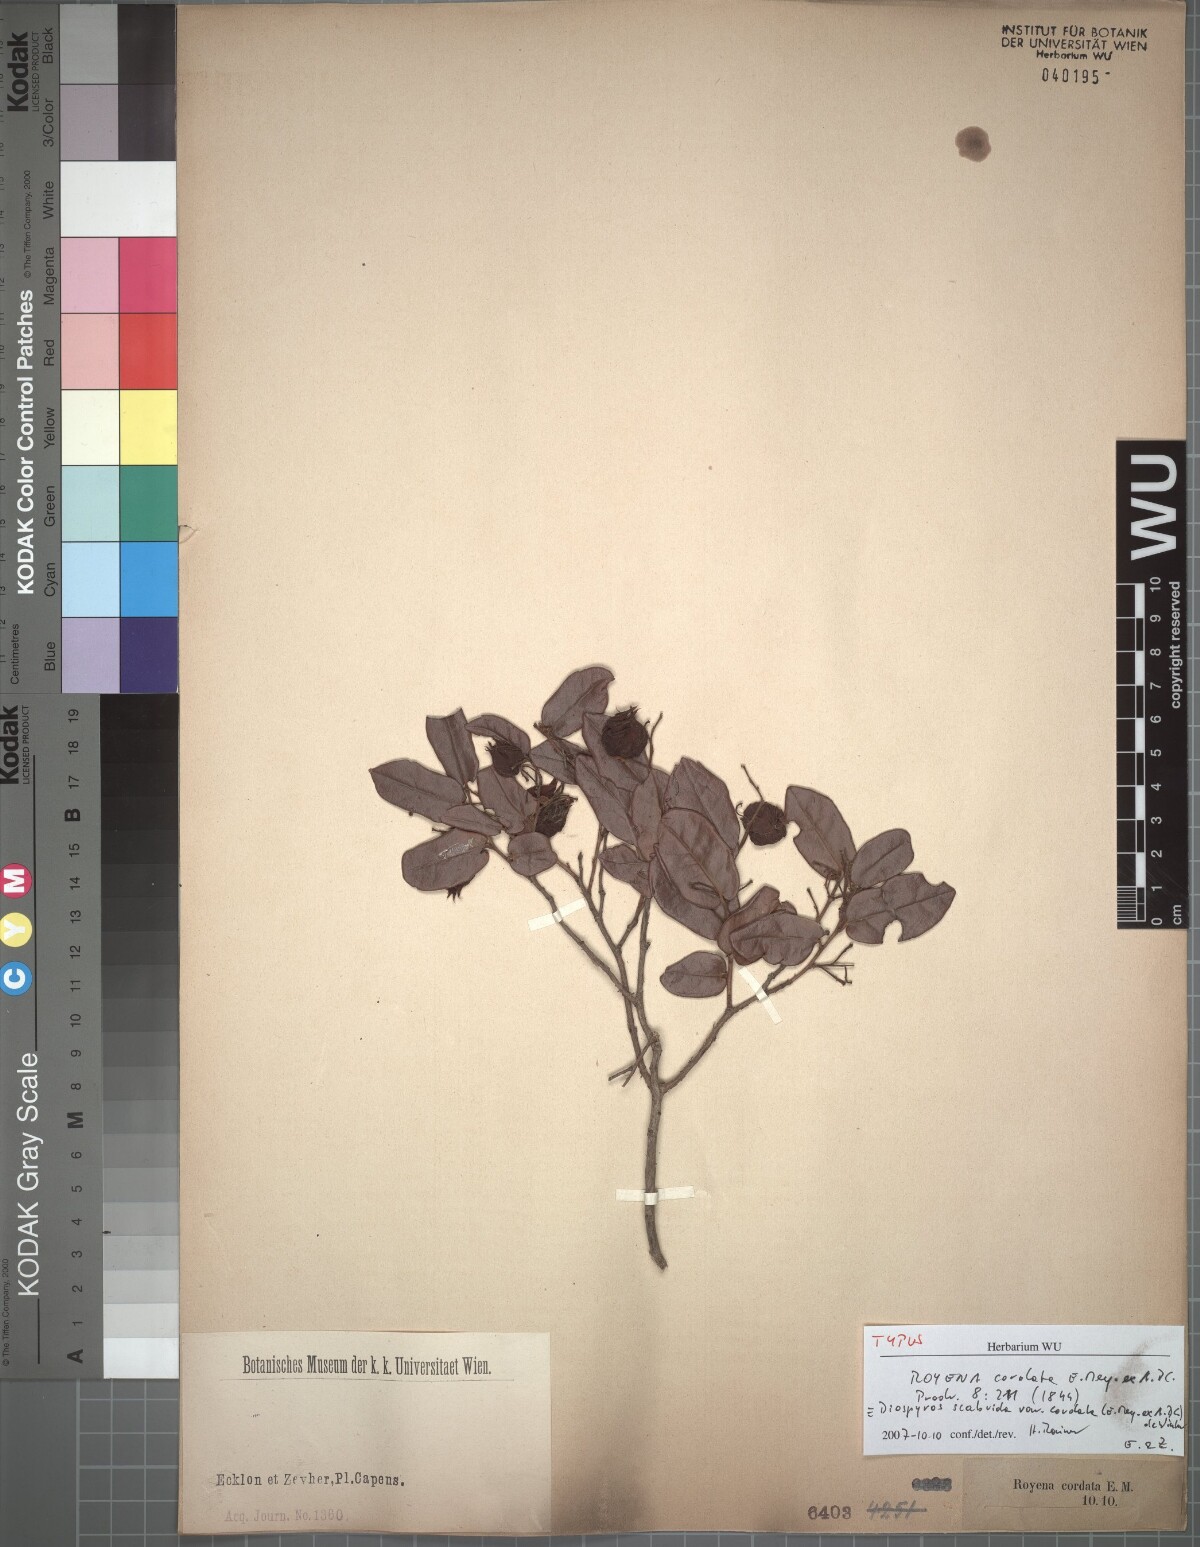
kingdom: Plantae
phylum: Tracheophyta
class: Magnoliopsida
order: Ericales
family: Ebenaceae
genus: Diospyros
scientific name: Diospyros scabrida
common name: Coastal bladder-nut
